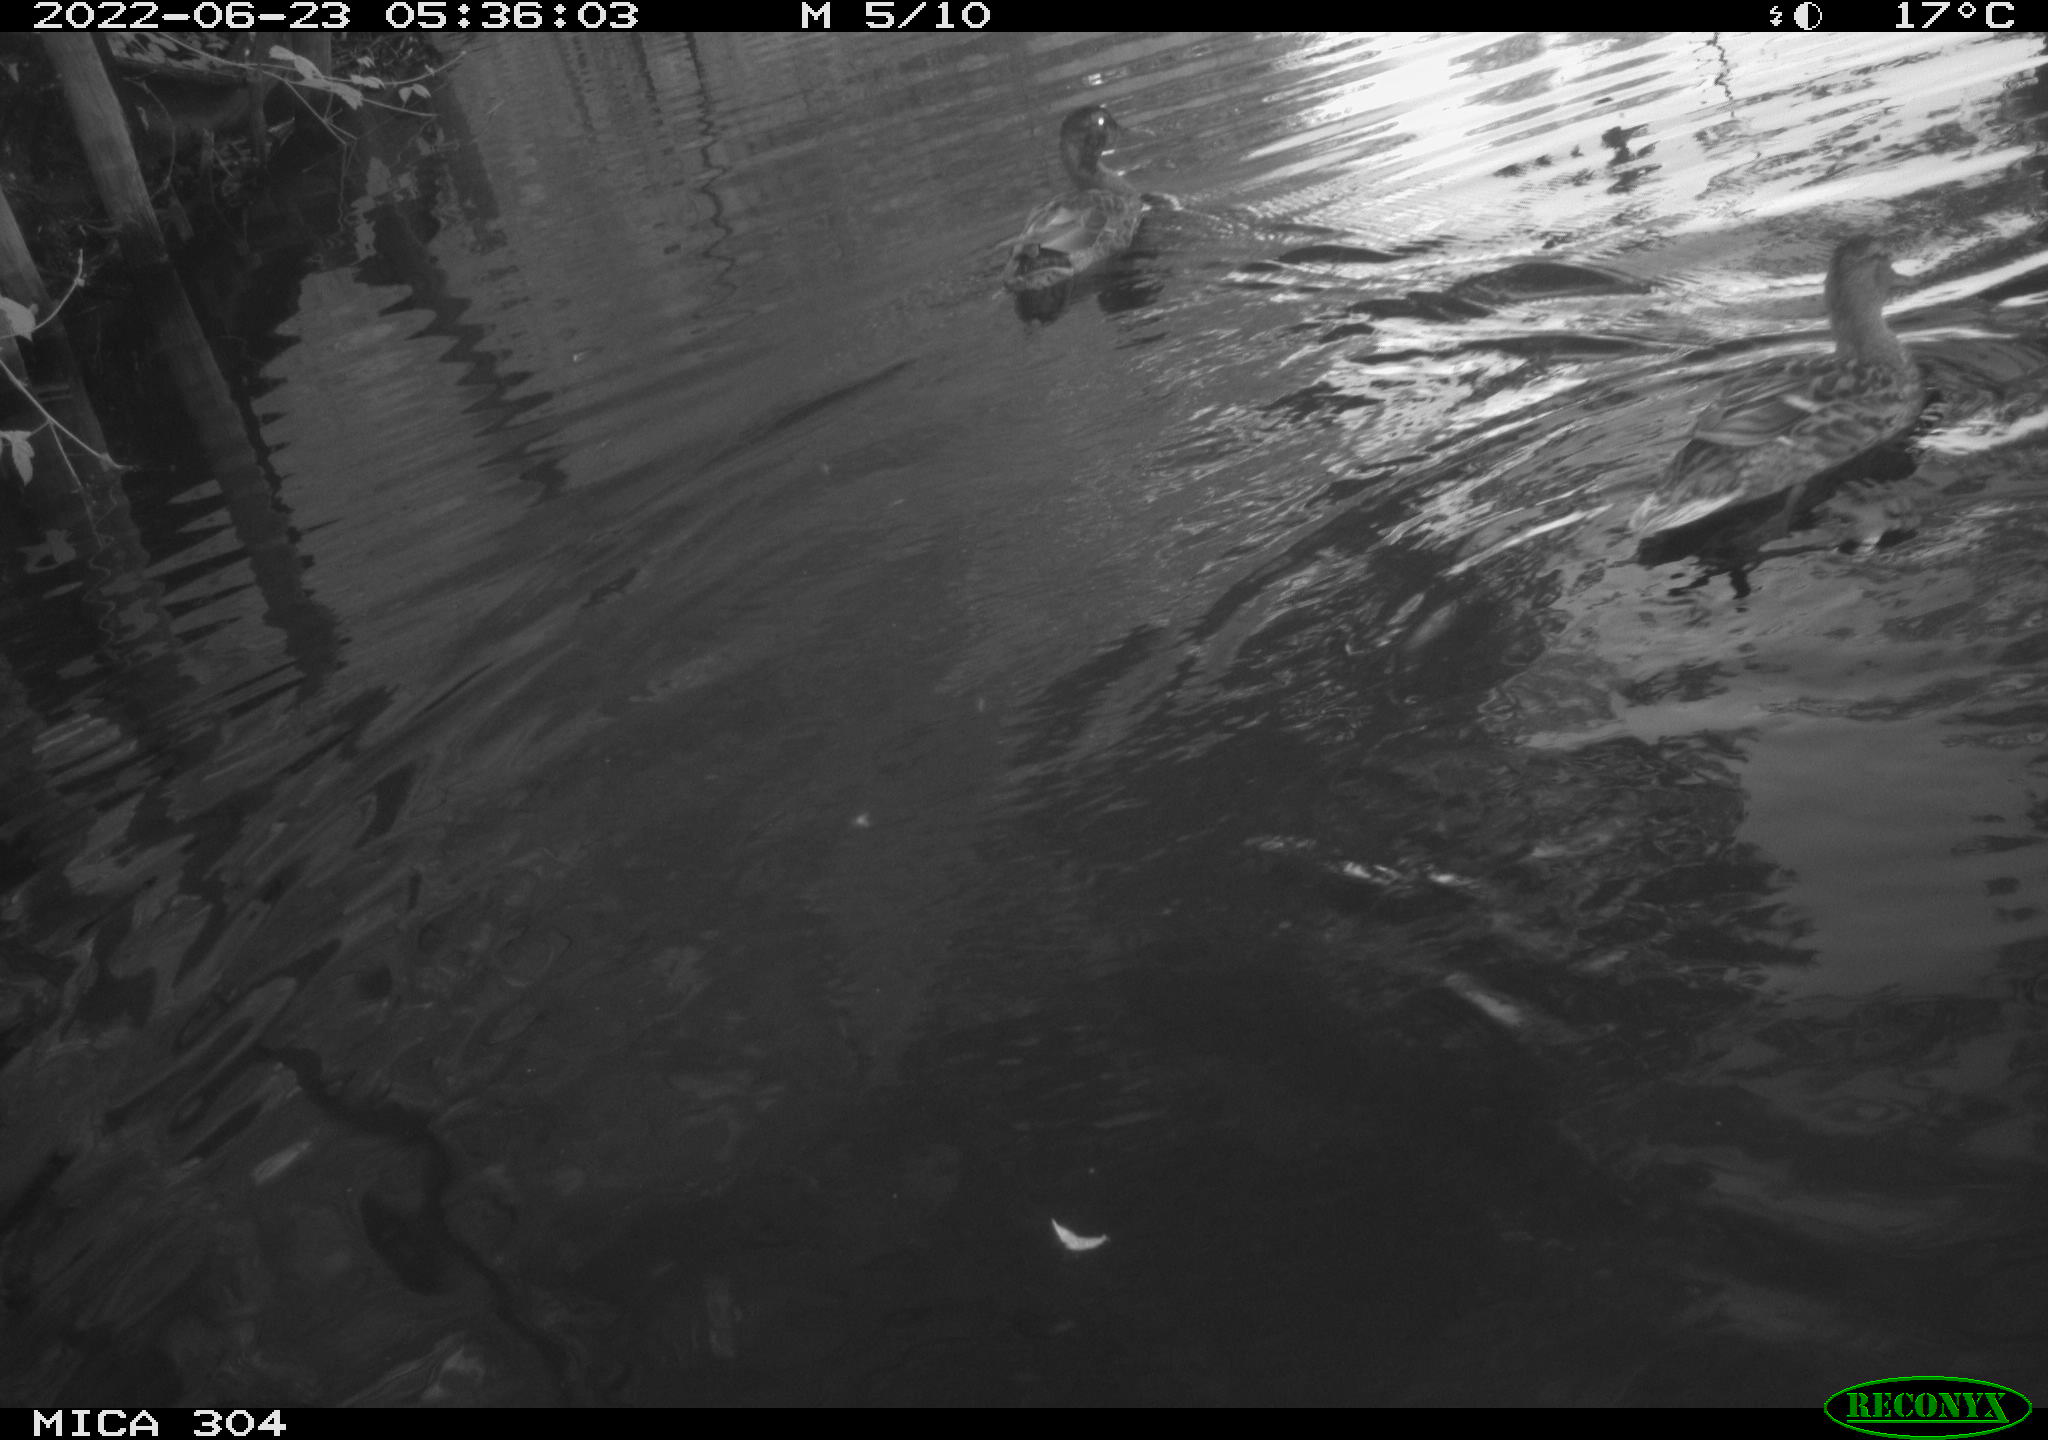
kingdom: Animalia
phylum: Chordata
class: Aves
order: Anseriformes
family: Anatidae
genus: Anas
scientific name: Anas platyrhynchos
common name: Mallard
